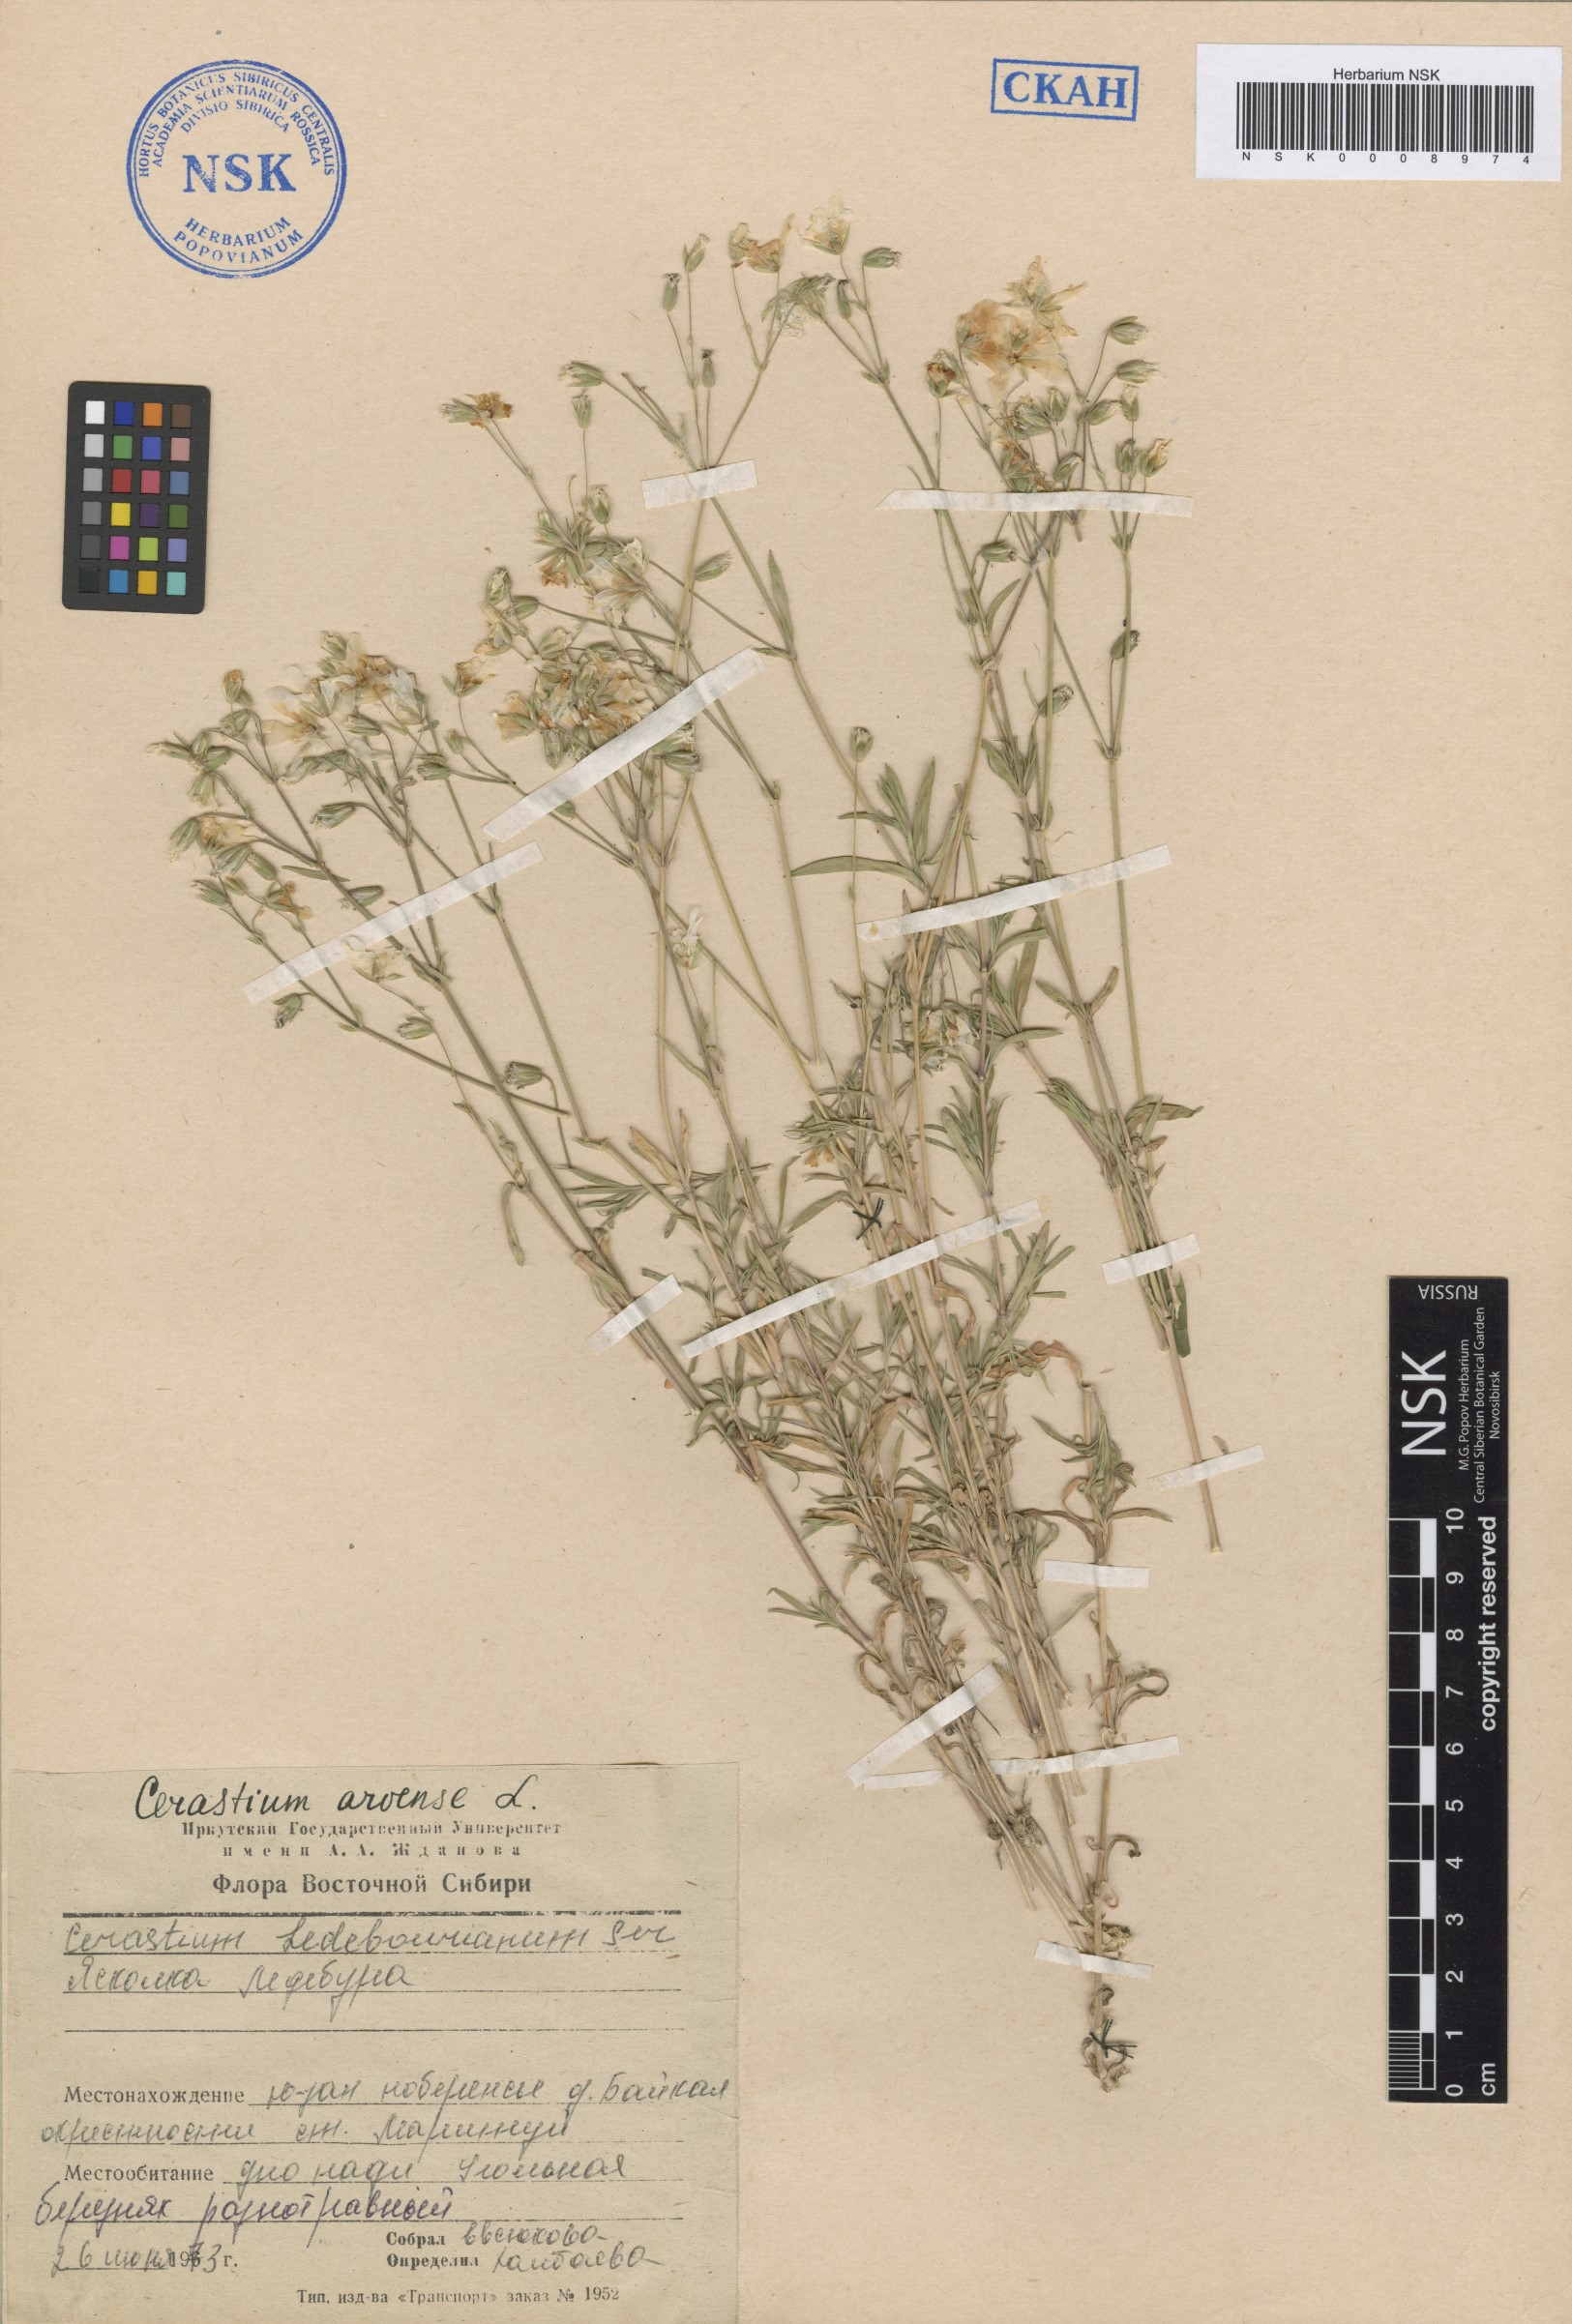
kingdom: Plantae
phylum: Tracheophyta
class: Magnoliopsida
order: Caryophyllales
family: Caryophyllaceae
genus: Cerastium
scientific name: Cerastium arvense
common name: Field mouse-ear
